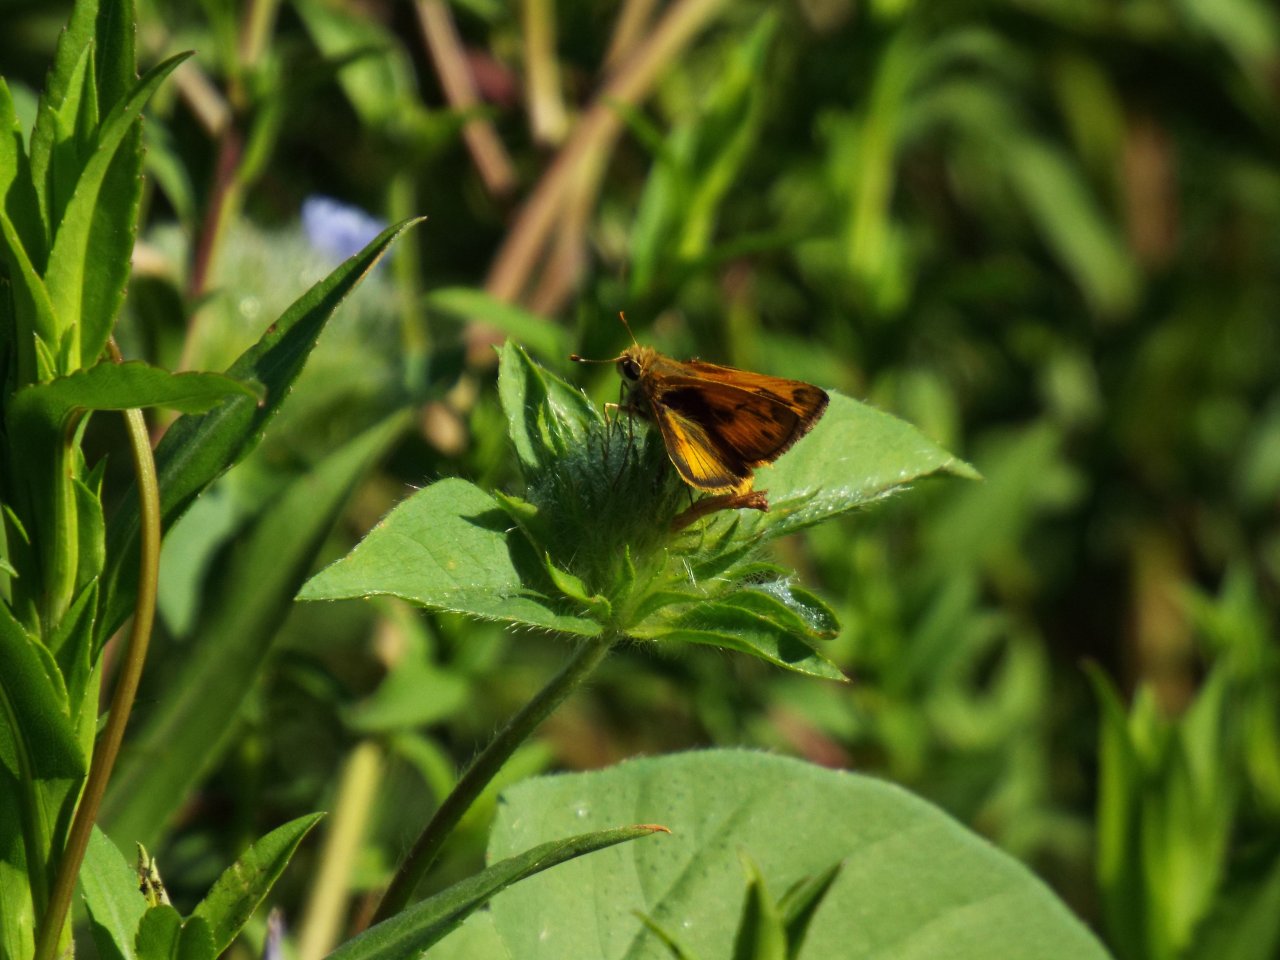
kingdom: Animalia
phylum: Arthropoda
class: Insecta
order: Lepidoptera
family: Hesperiidae
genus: Polites
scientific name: Polites vibex
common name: Whirlabout
